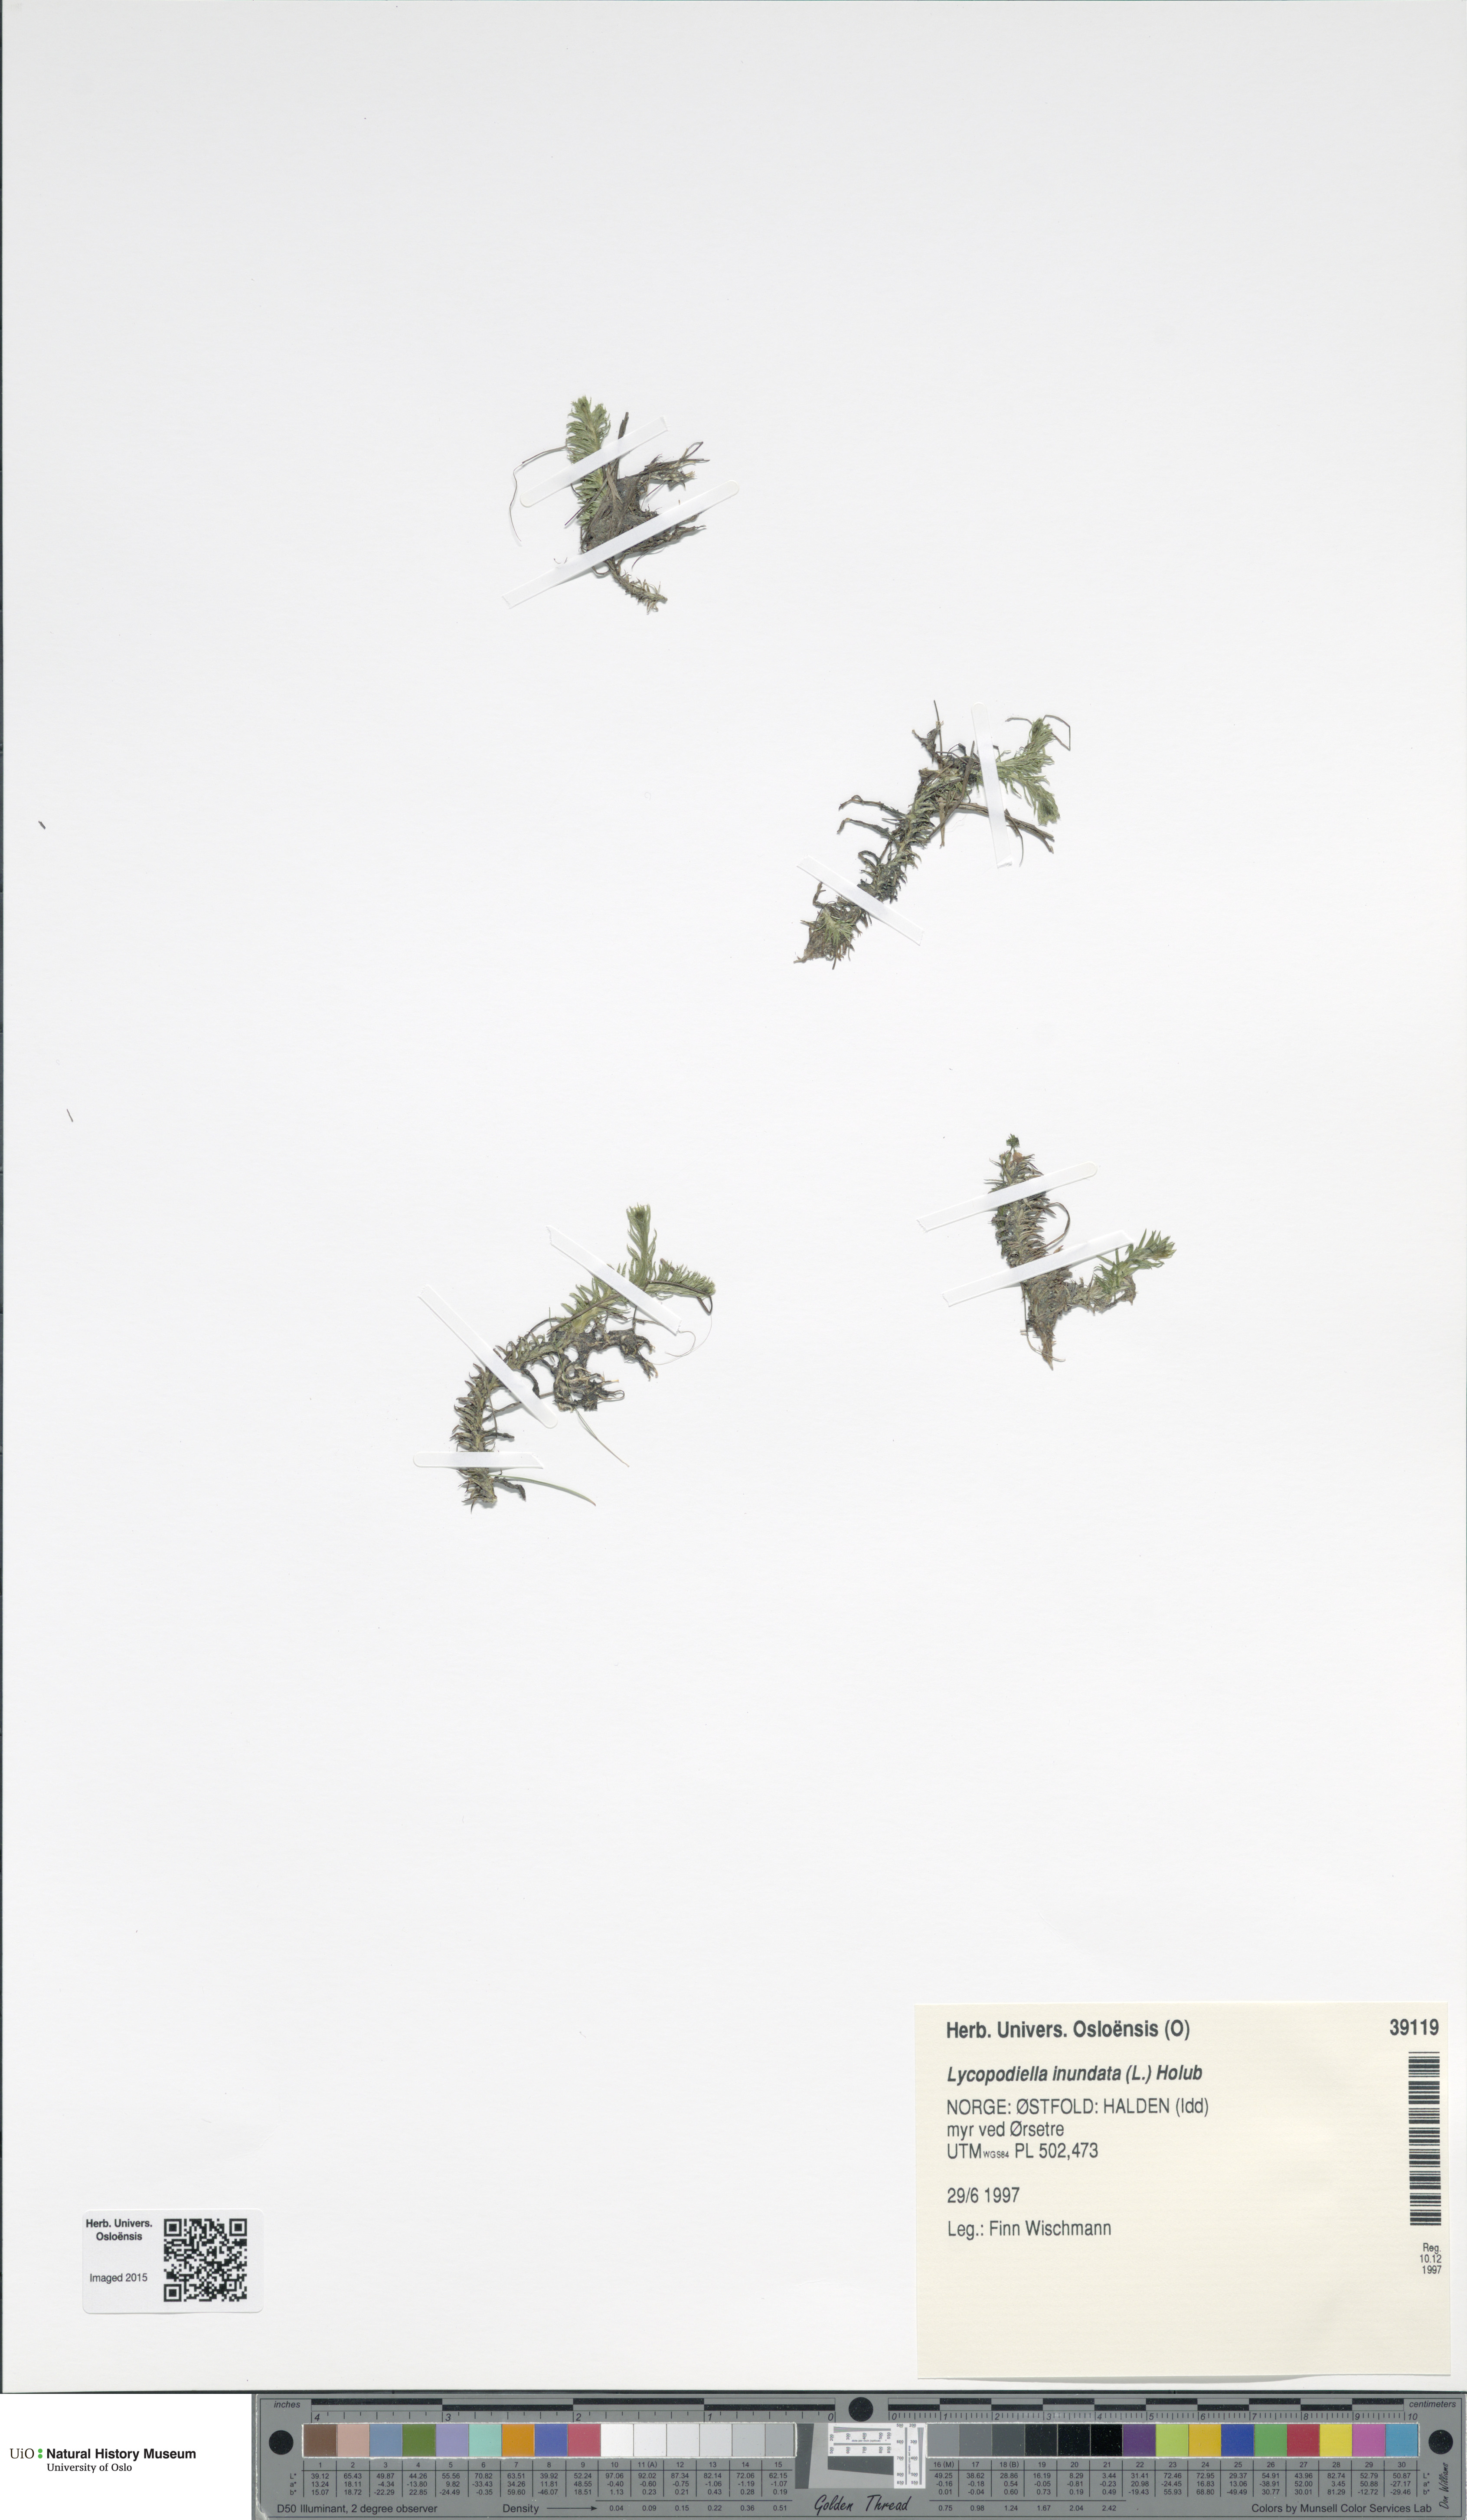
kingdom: Plantae
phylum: Tracheophyta
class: Lycopodiopsida
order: Lycopodiales
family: Lycopodiaceae
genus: Lycopodiella
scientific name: Lycopodiella inundata
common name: Marsh clubmoss
